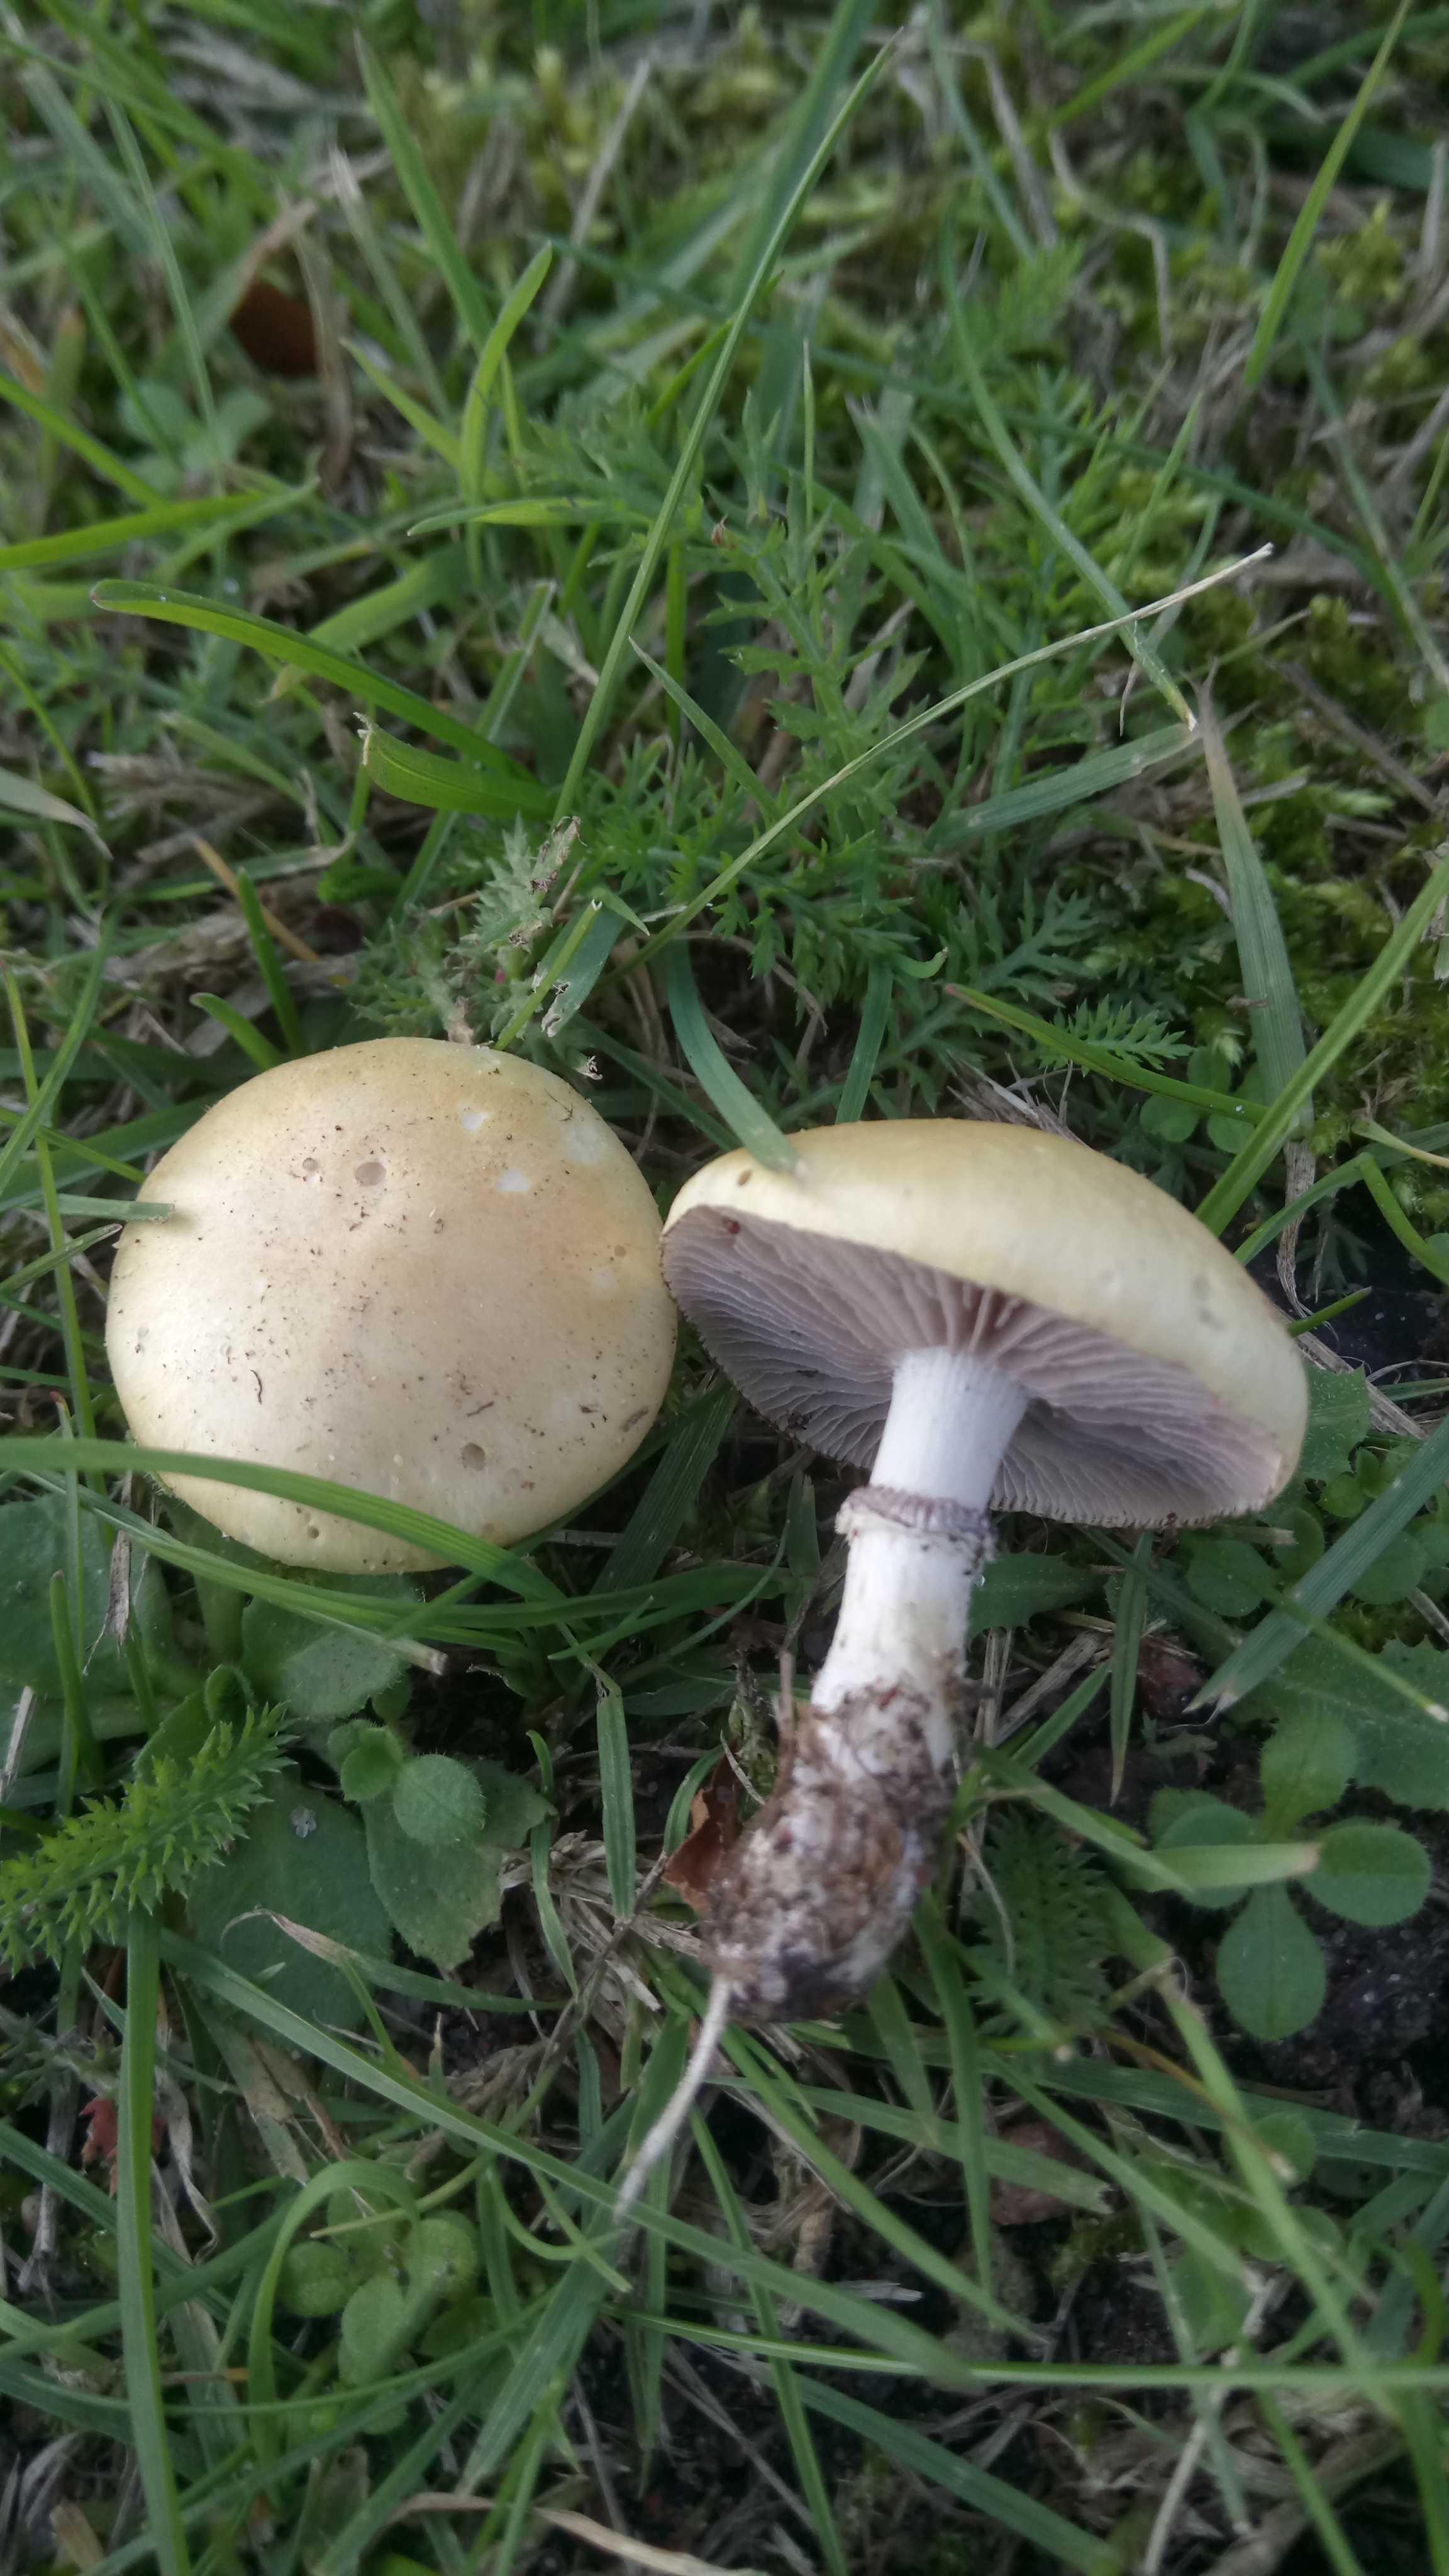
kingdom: Fungi
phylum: Basidiomycota
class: Agaricomycetes
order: Agaricales
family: Hymenogastraceae
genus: Psilocybe
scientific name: Psilocybe coronilla
